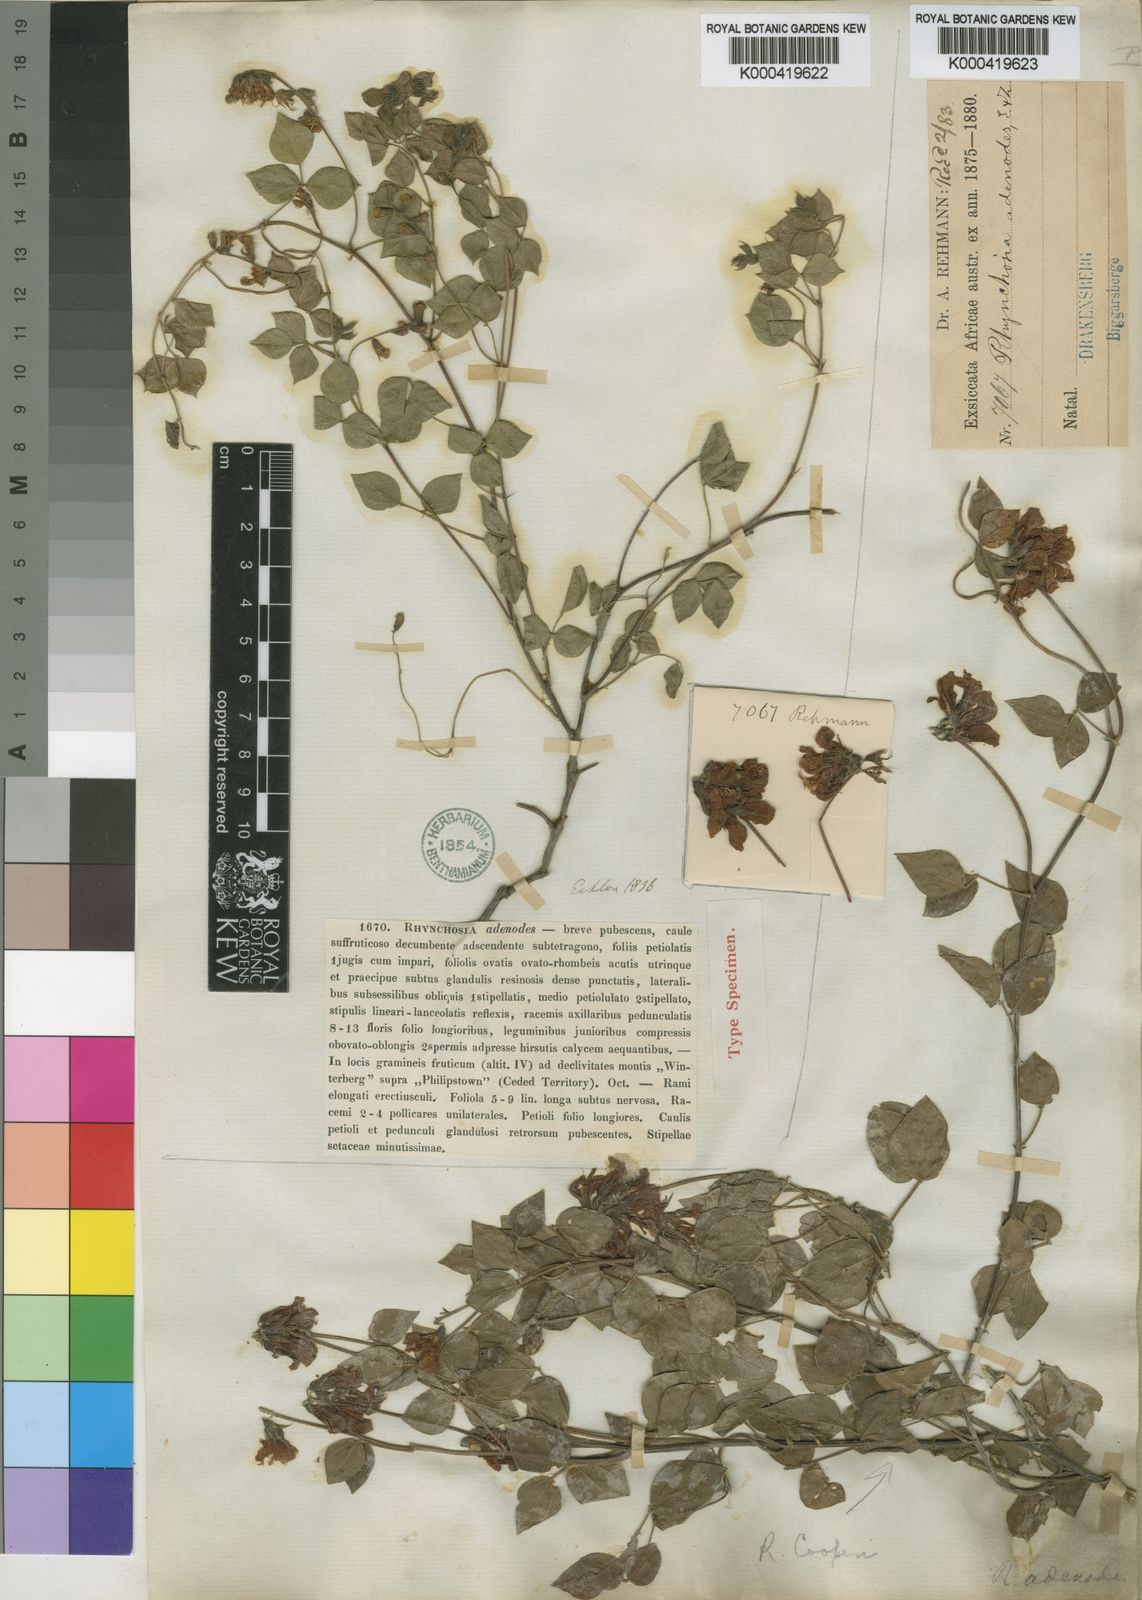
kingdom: Plantae
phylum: Tracheophyta
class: Magnoliopsida
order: Fabales
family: Fabaceae
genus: Rhynchosia
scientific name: Rhynchosia adenodes
